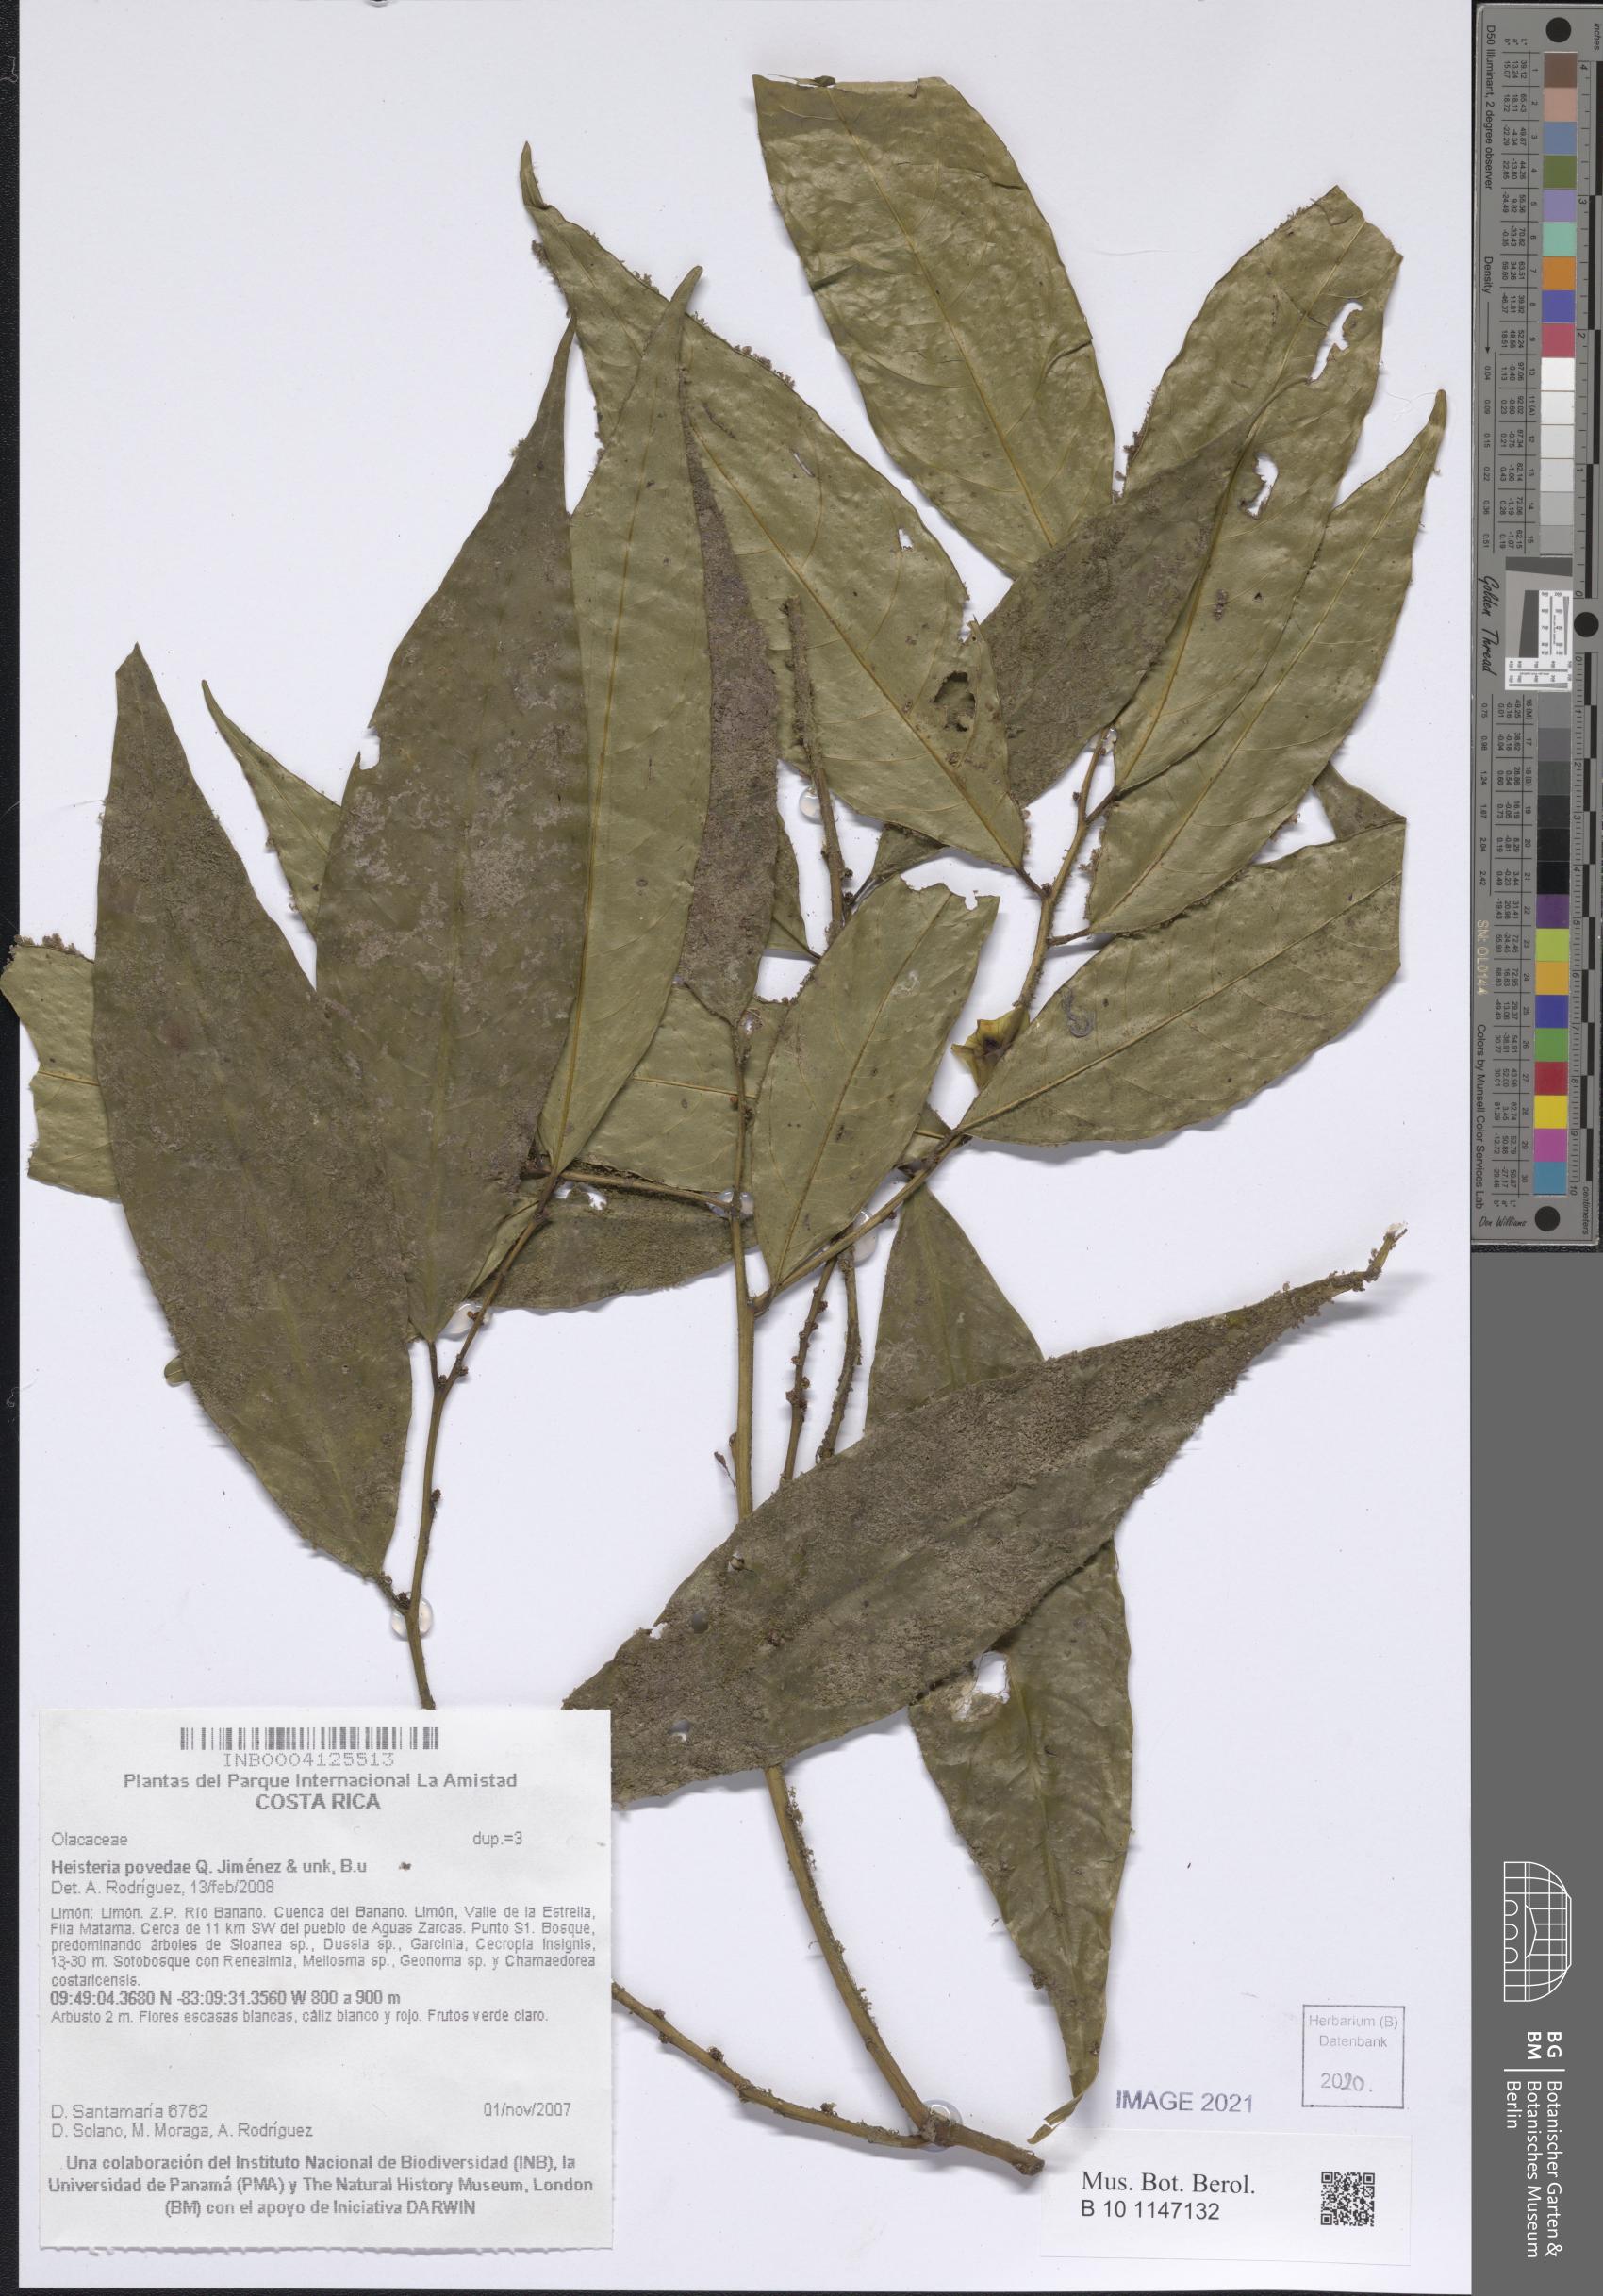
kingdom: Plantae
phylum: Tracheophyta
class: Magnoliopsida
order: Santalales
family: Erythropalaceae
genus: Heisteria
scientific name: Heisteria povedae
